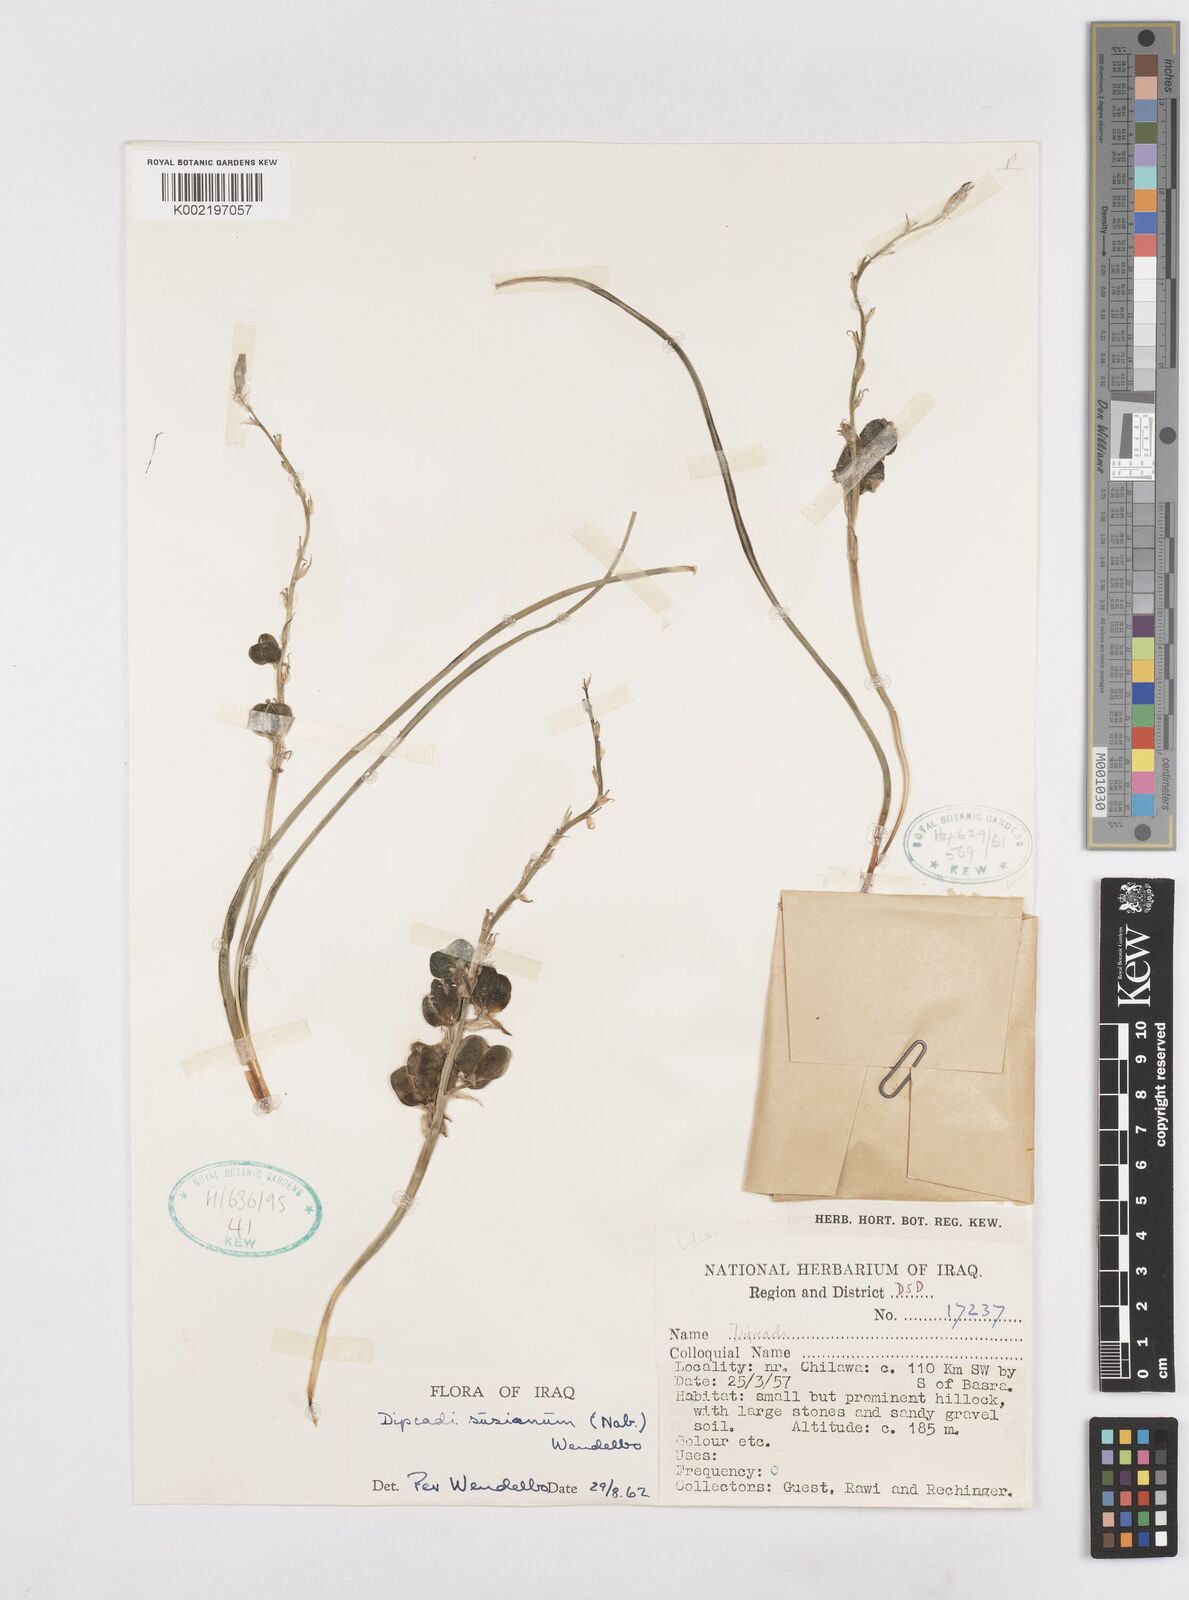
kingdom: Plantae
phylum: Tracheophyta
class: Liliopsida
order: Asparagales
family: Asparagaceae
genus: Dipcadi
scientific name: Dipcadi susianum
